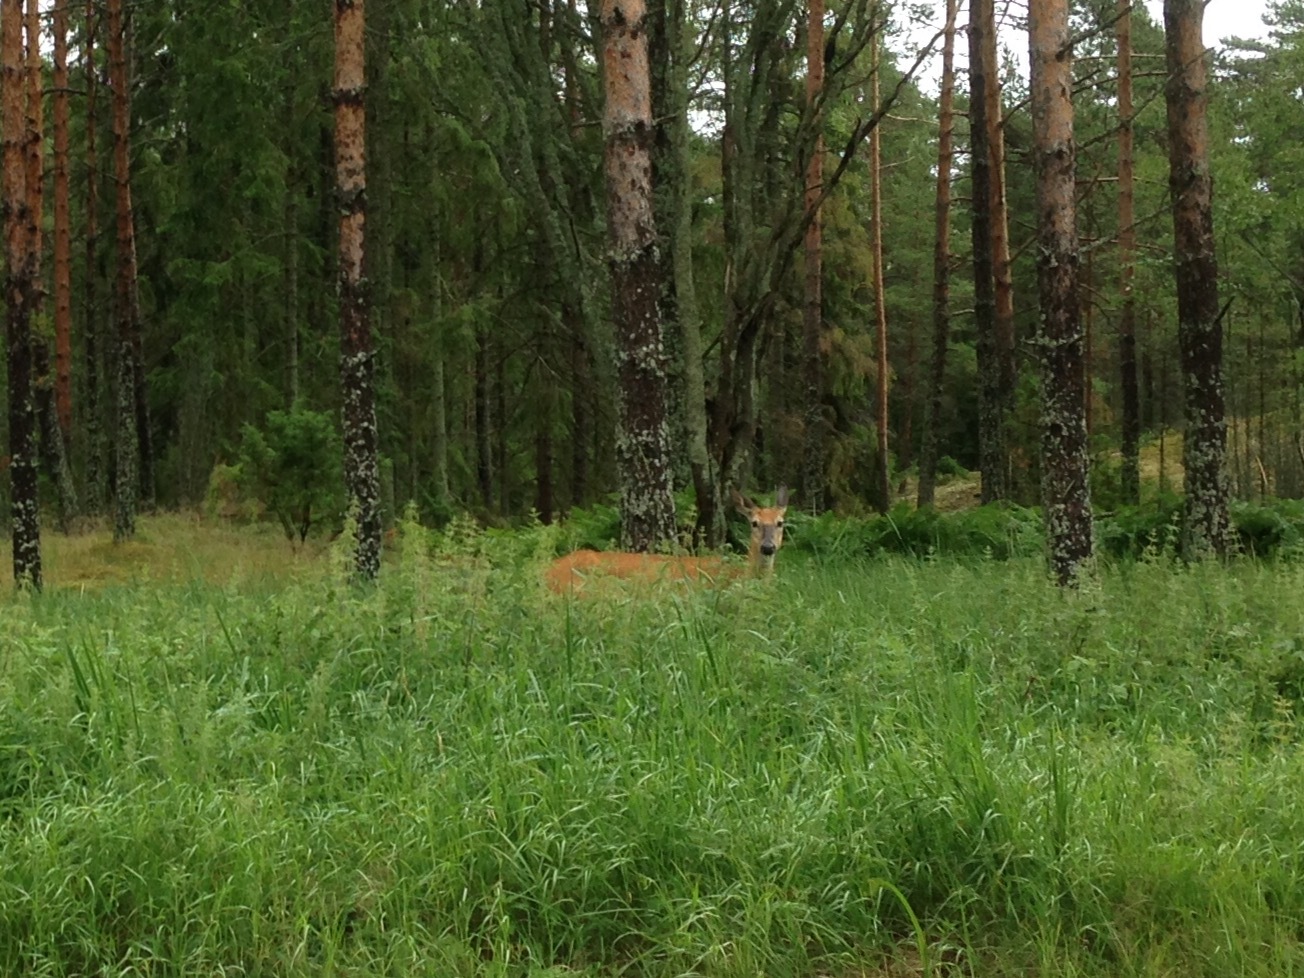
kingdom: Animalia
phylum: Chordata
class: Mammalia
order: Artiodactyla
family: Cervidae
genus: Odocoileus
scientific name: Odocoileus virginianus
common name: White-tailed deer
